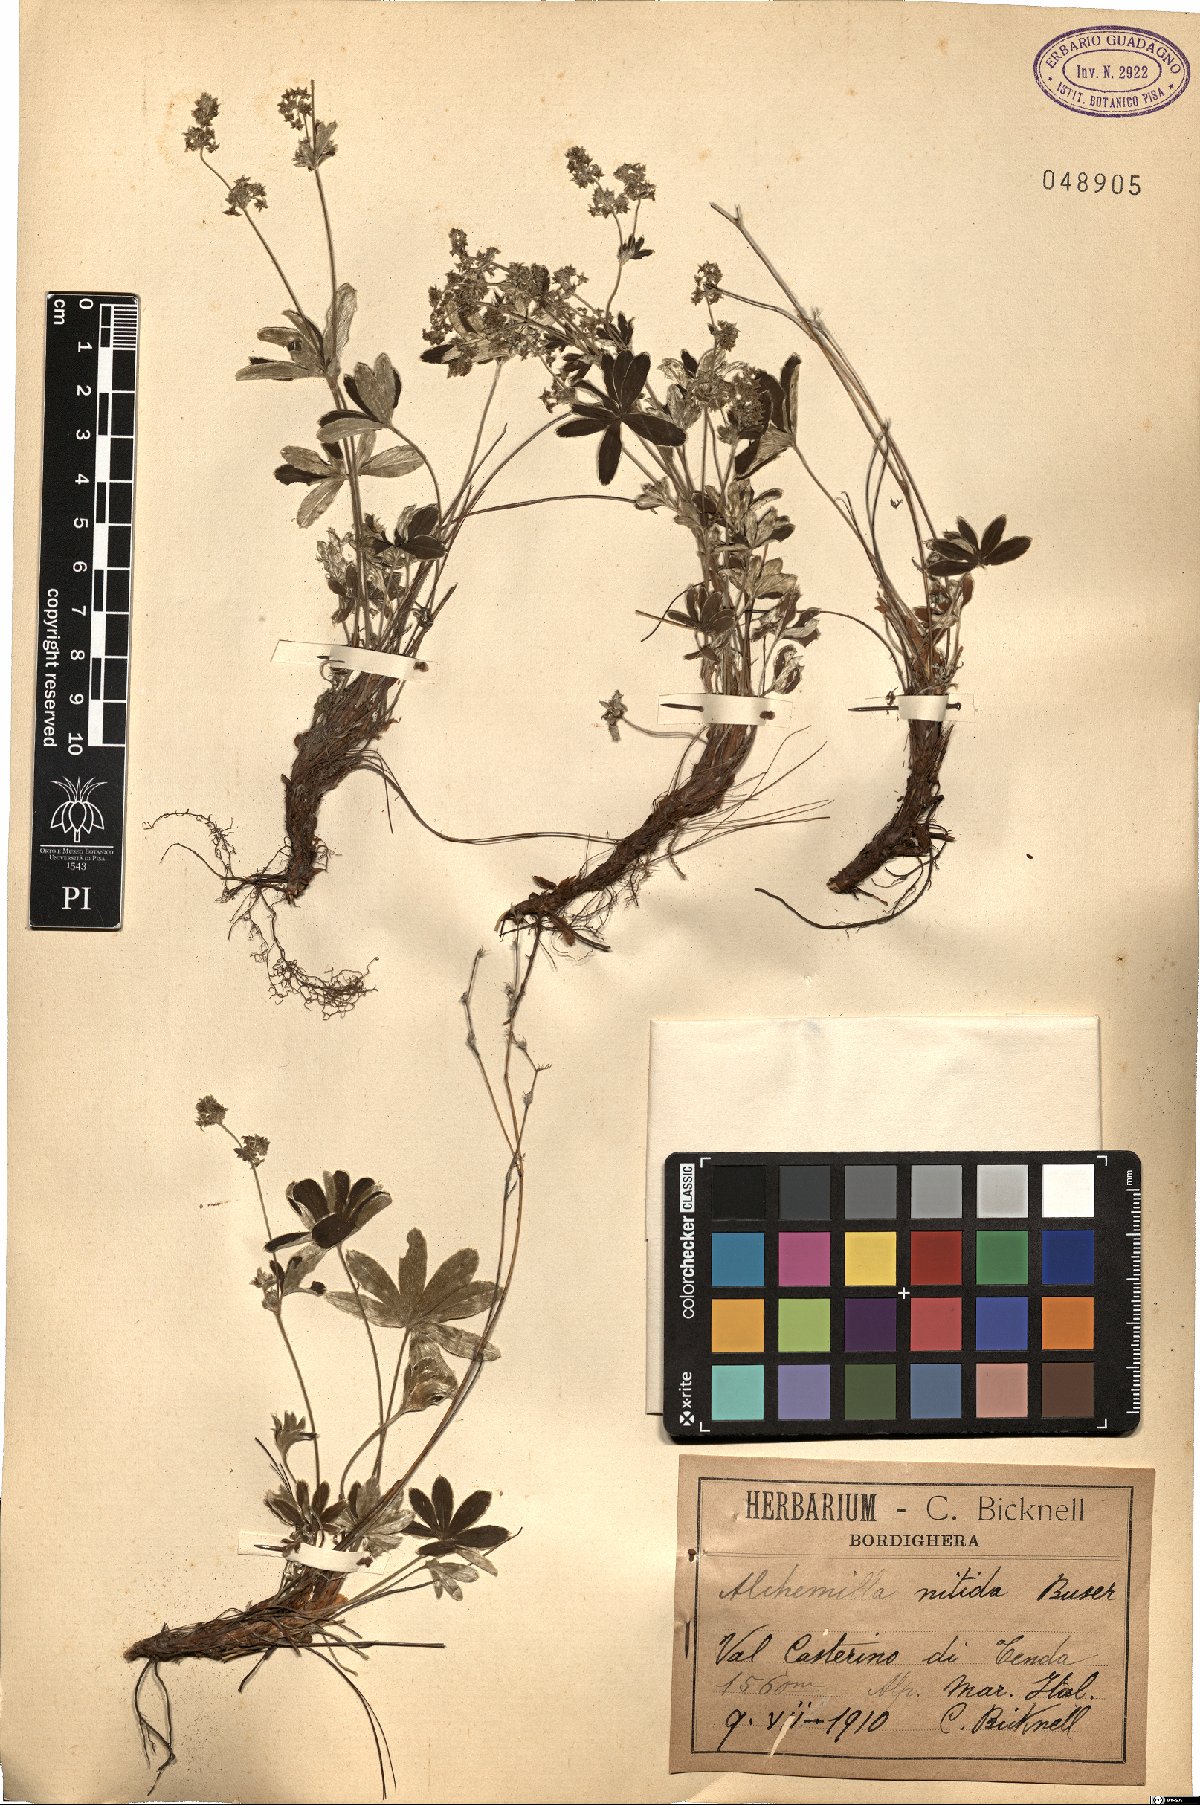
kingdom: Plantae
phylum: Tracheophyta
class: Magnoliopsida
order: Rosales
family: Rosaceae
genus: Alchemilla
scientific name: Alchemilla nitida
